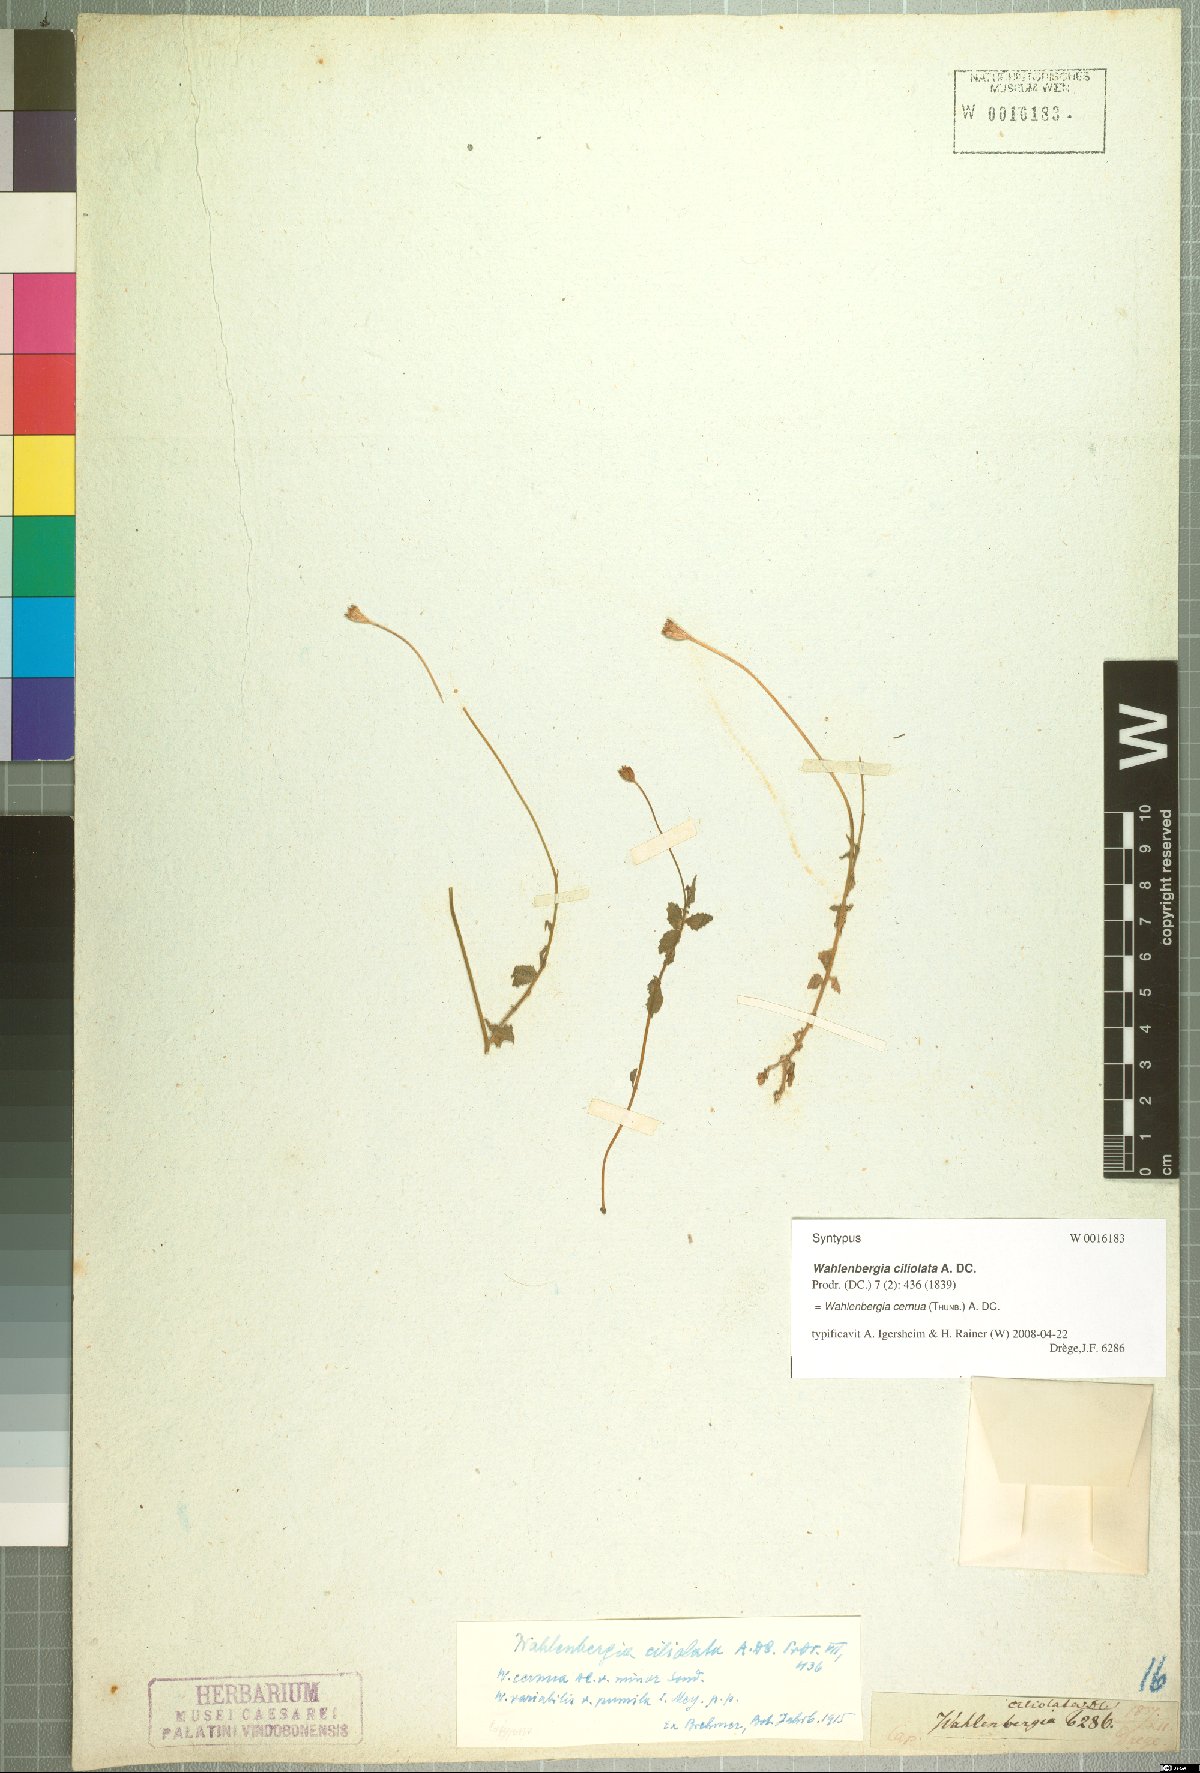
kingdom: Plantae
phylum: Tracheophyta
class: Magnoliopsida
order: Asterales
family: Campanulaceae
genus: Wahlenbergia
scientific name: Wahlenbergia cernua
